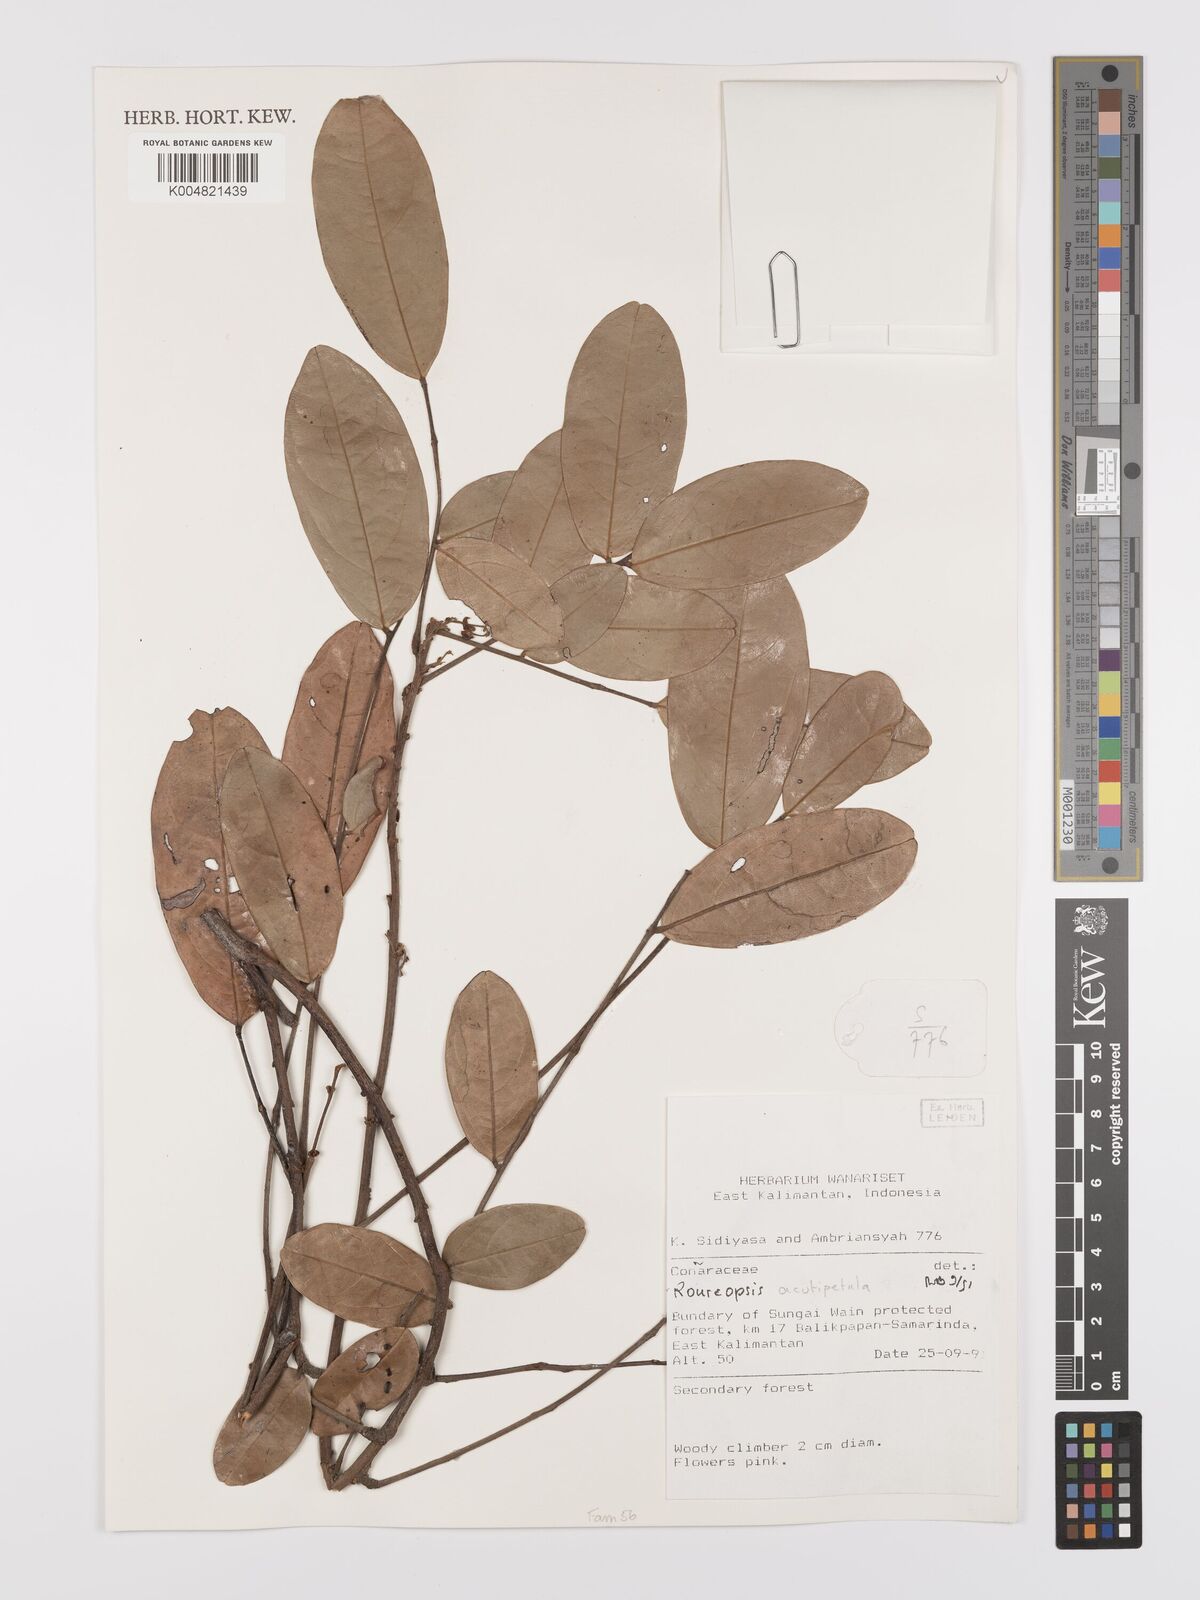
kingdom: Plantae
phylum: Tracheophyta
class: Magnoliopsida
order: Oxalidales
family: Connaraceae
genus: Rourea
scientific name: Rourea acutipetala
